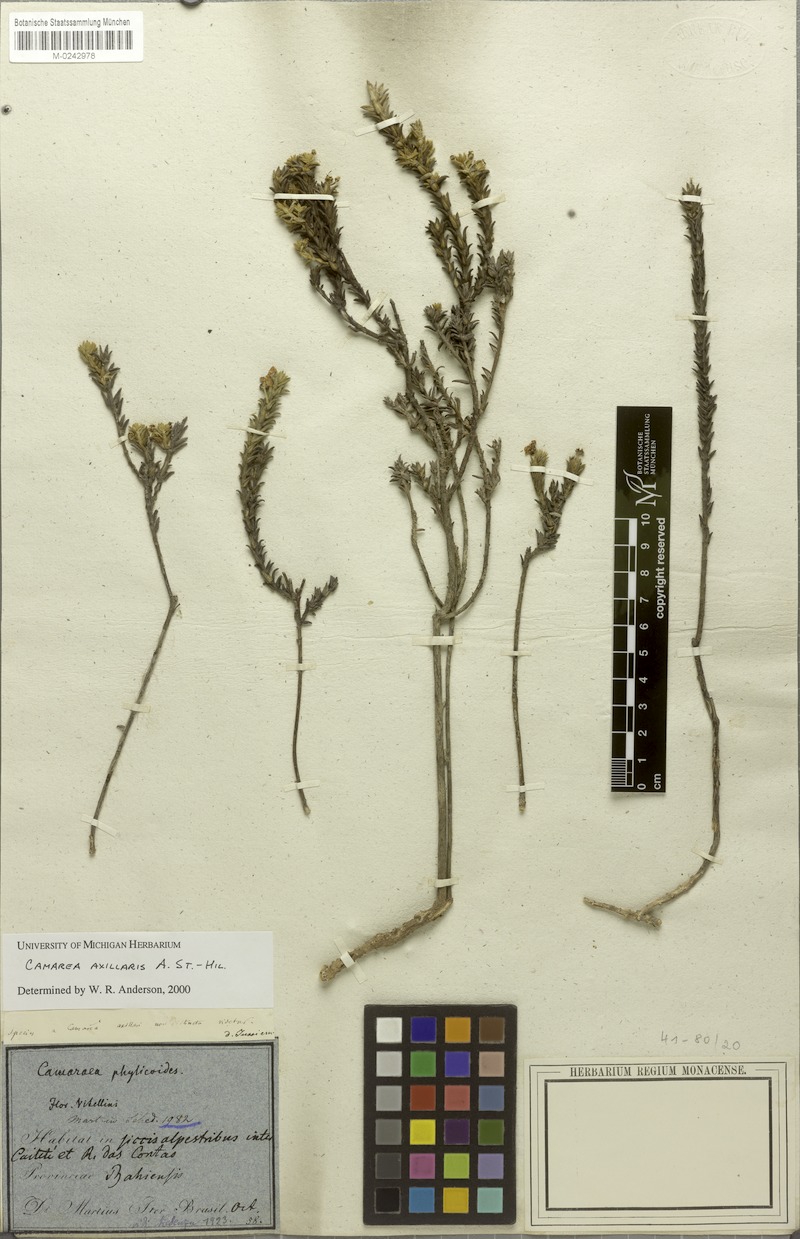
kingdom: Plantae
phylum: Tracheophyta
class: Magnoliopsida
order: Malpighiales
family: Malpighiaceae
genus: Camarea
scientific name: Camarea axillaris
